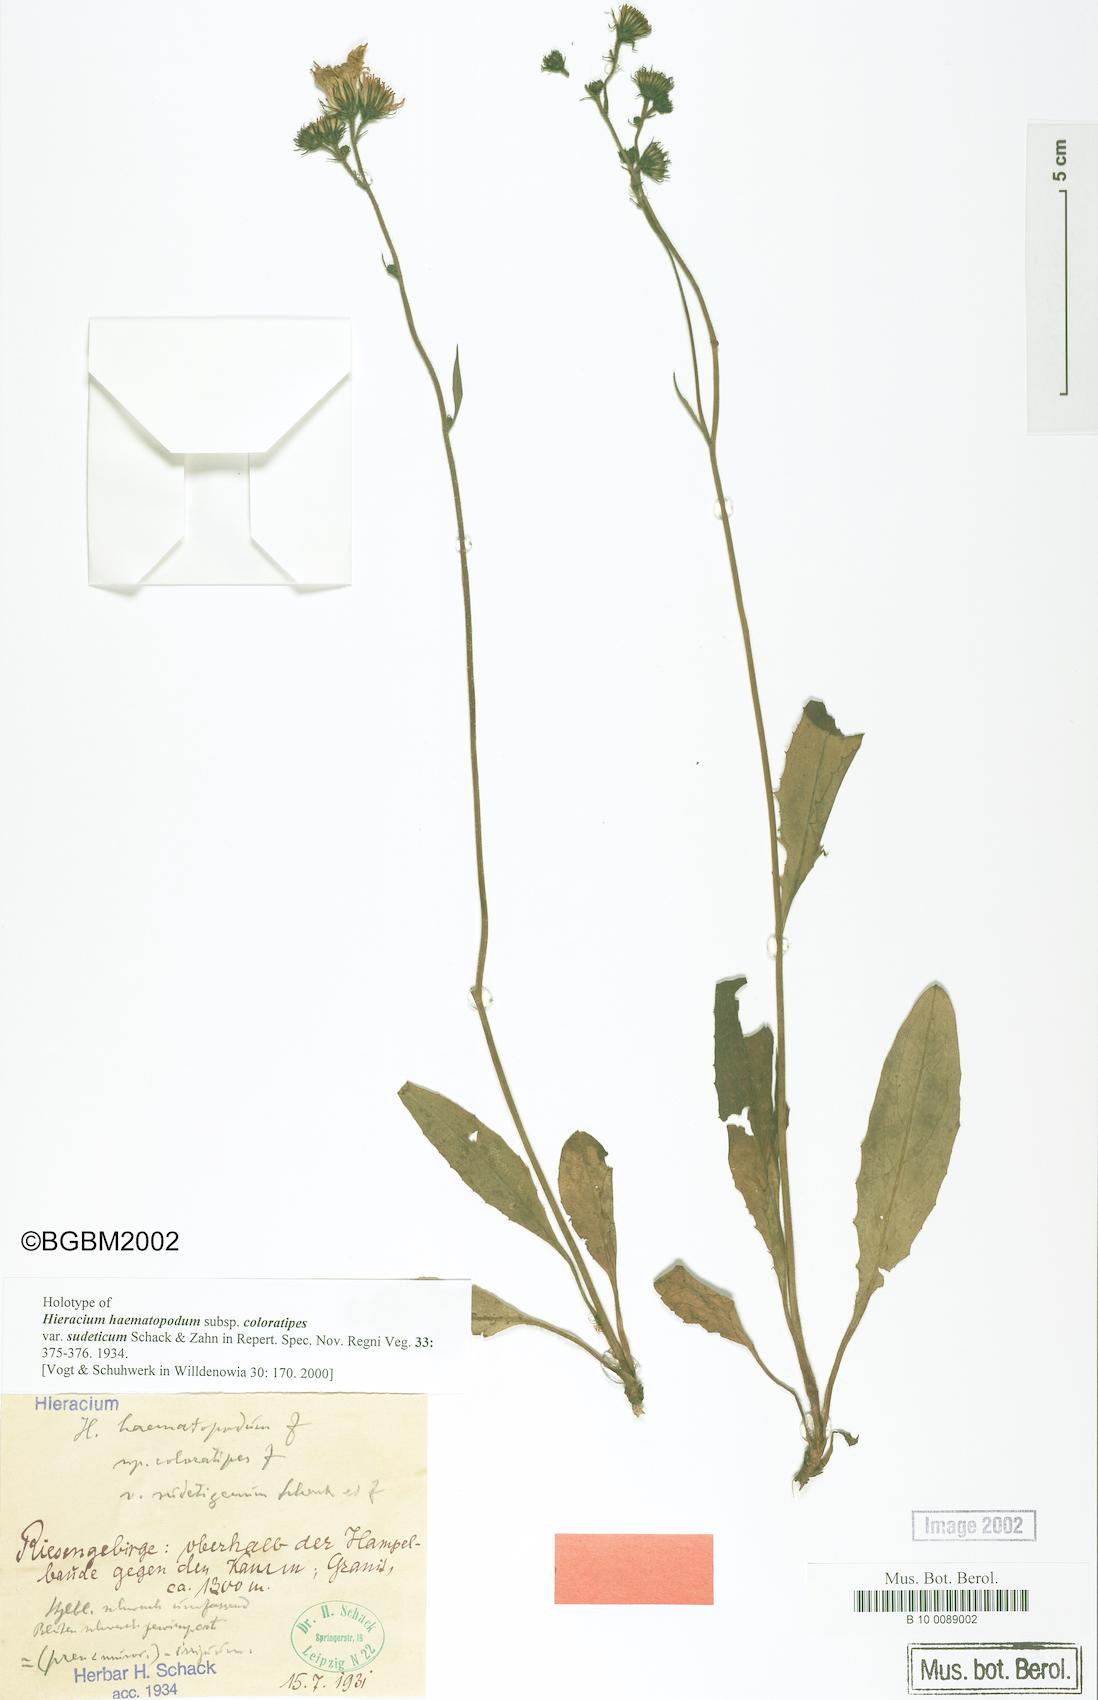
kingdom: Plantae
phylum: Tracheophyta
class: Magnoliopsida
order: Asterales
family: Asteraceae
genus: Hieracium
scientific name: Hieracium obscuratum
